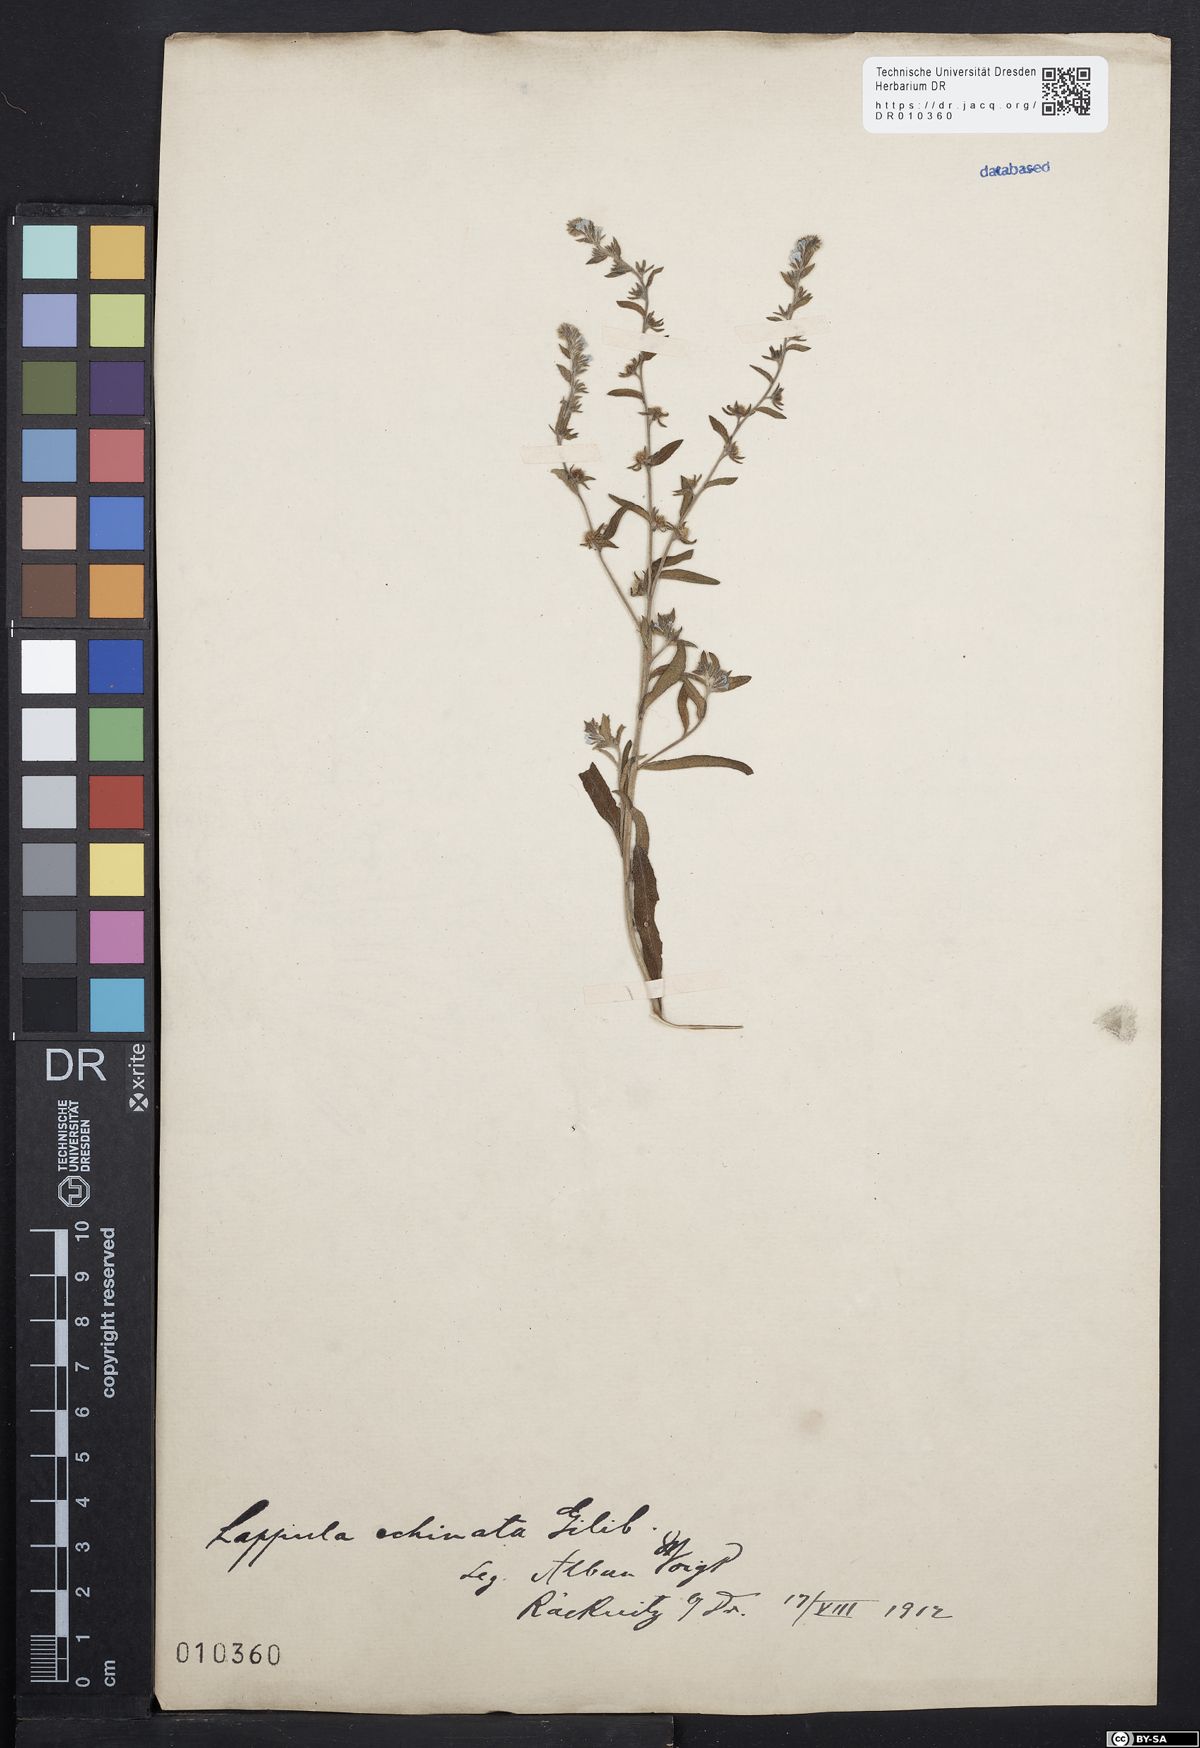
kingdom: Plantae
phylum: Tracheophyta
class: Magnoliopsida
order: Boraginales
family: Boraginaceae
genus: Lappula
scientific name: Lappula squarrosa
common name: European stickseed
